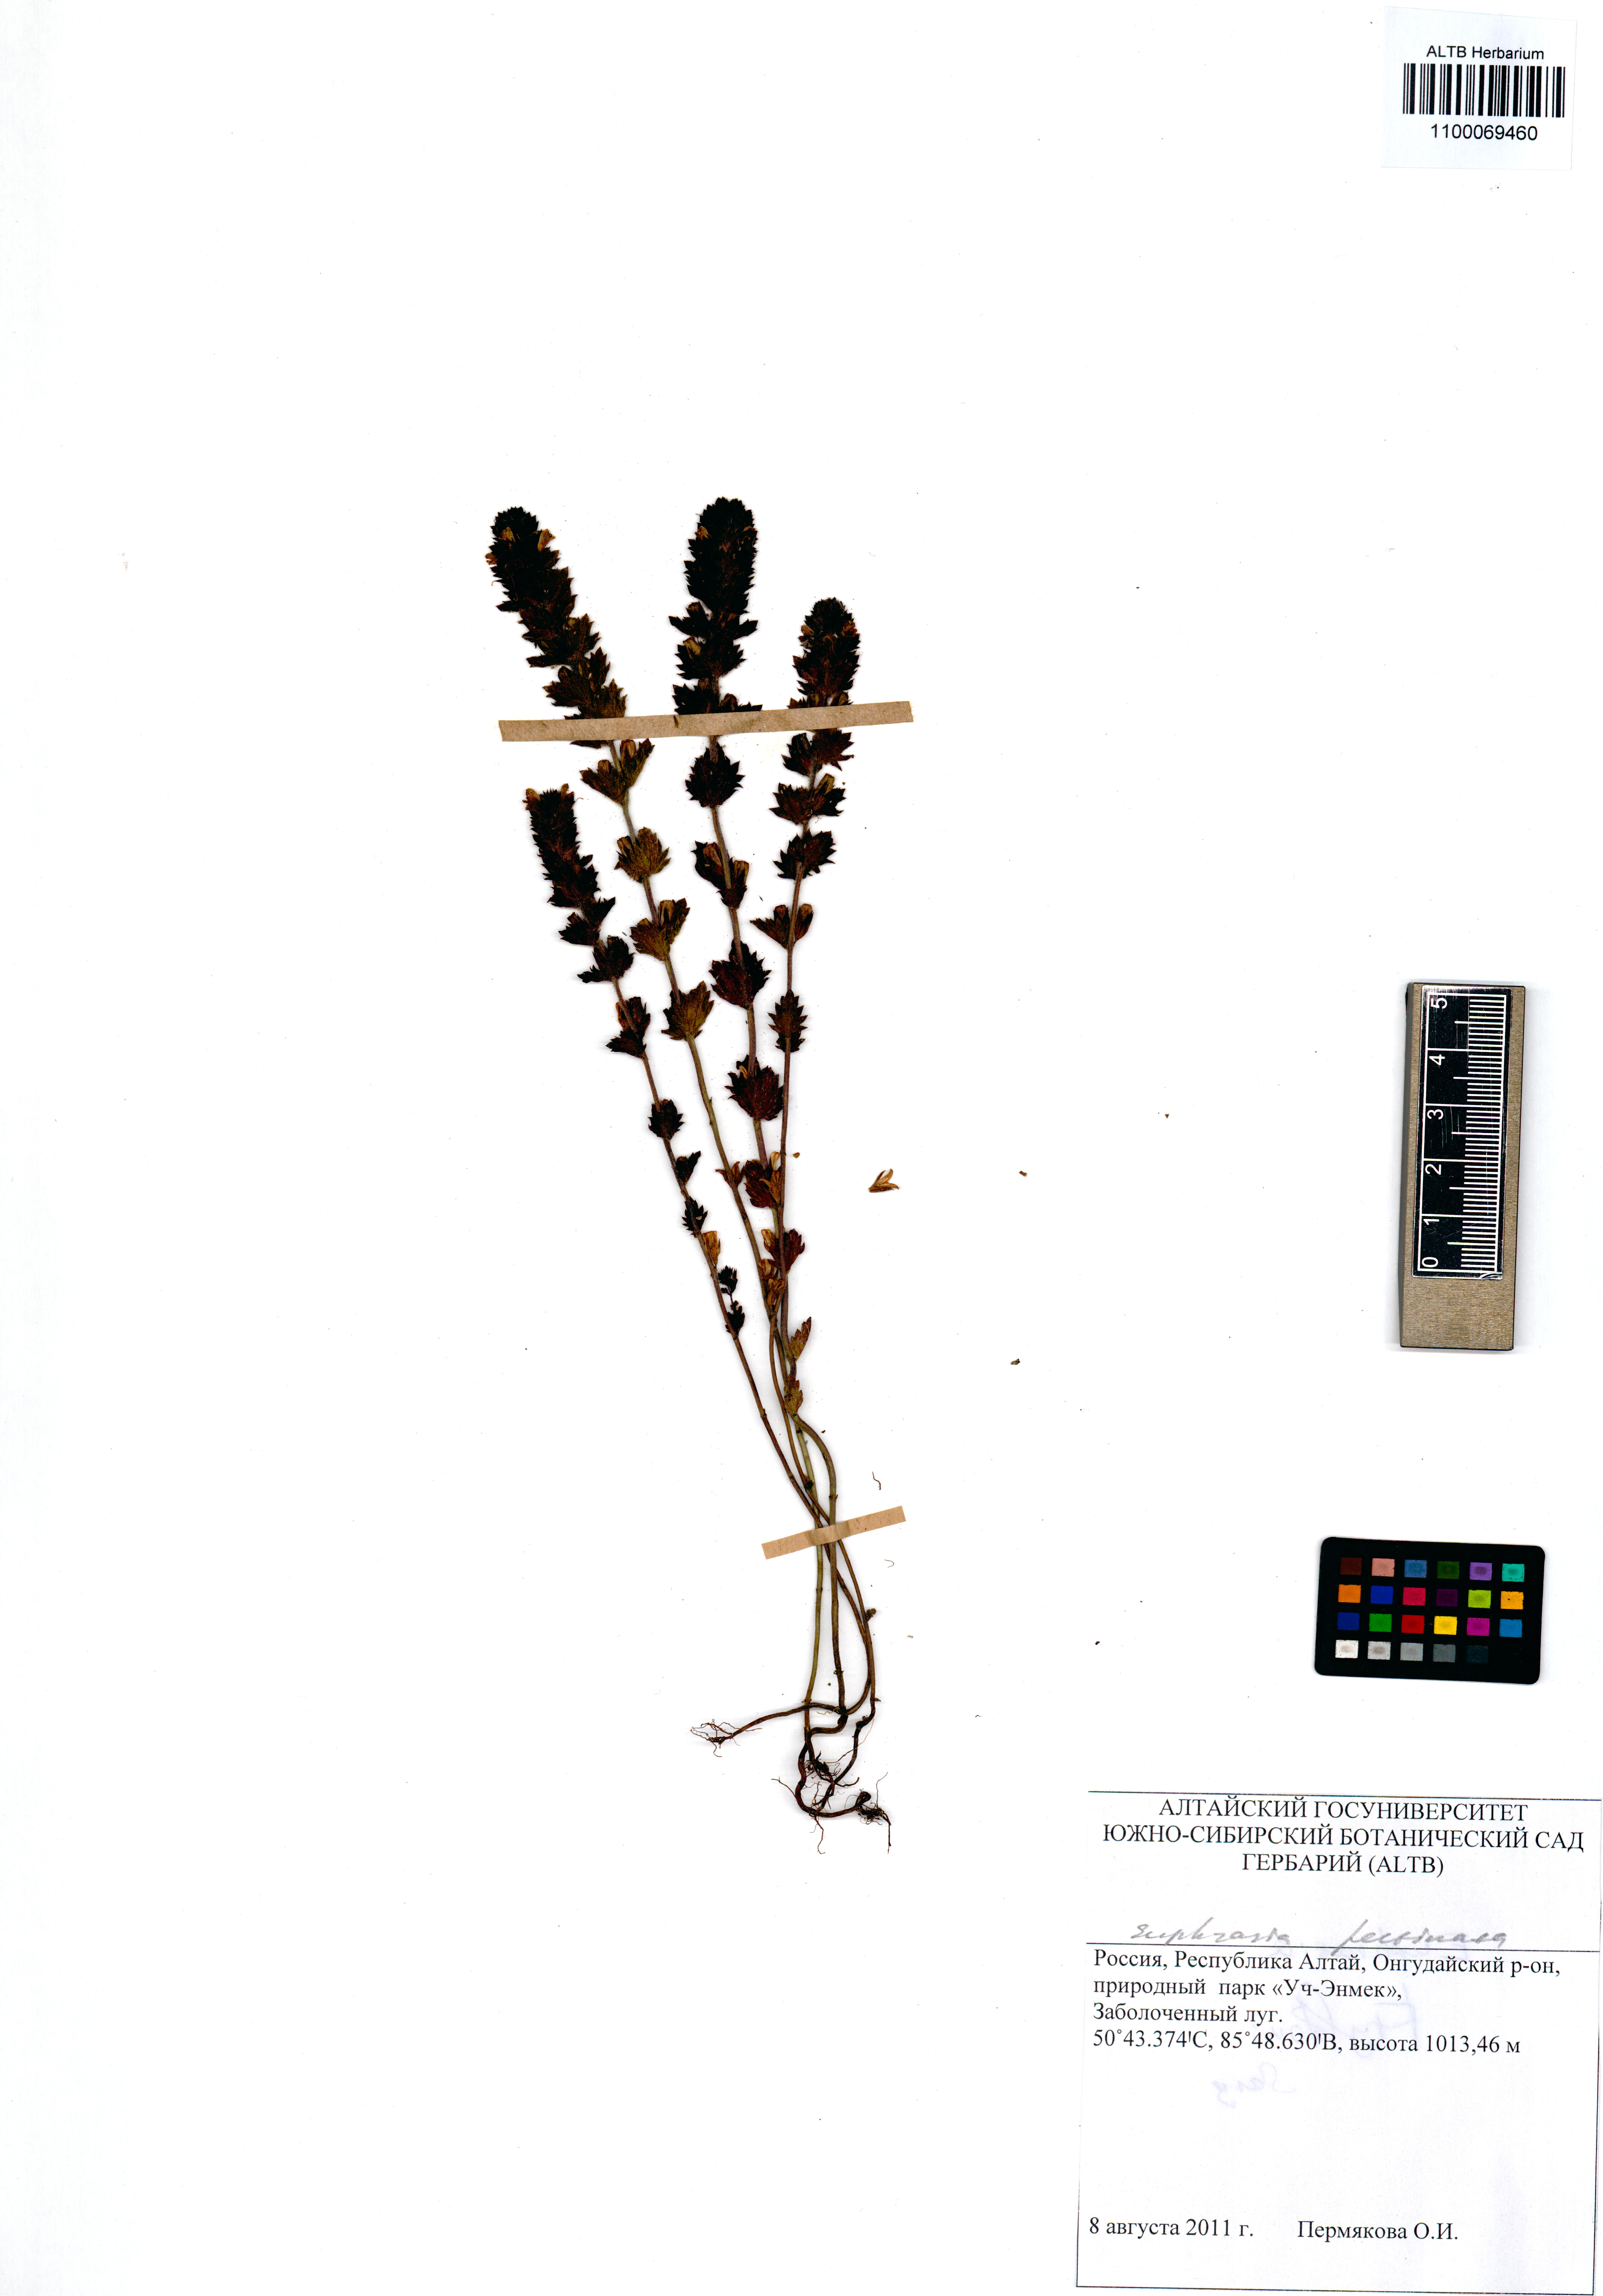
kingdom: Plantae
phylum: Tracheophyta
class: Magnoliopsida
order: Lamiales
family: Orobanchaceae
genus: Euphrasia
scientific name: Euphrasia pectinata
